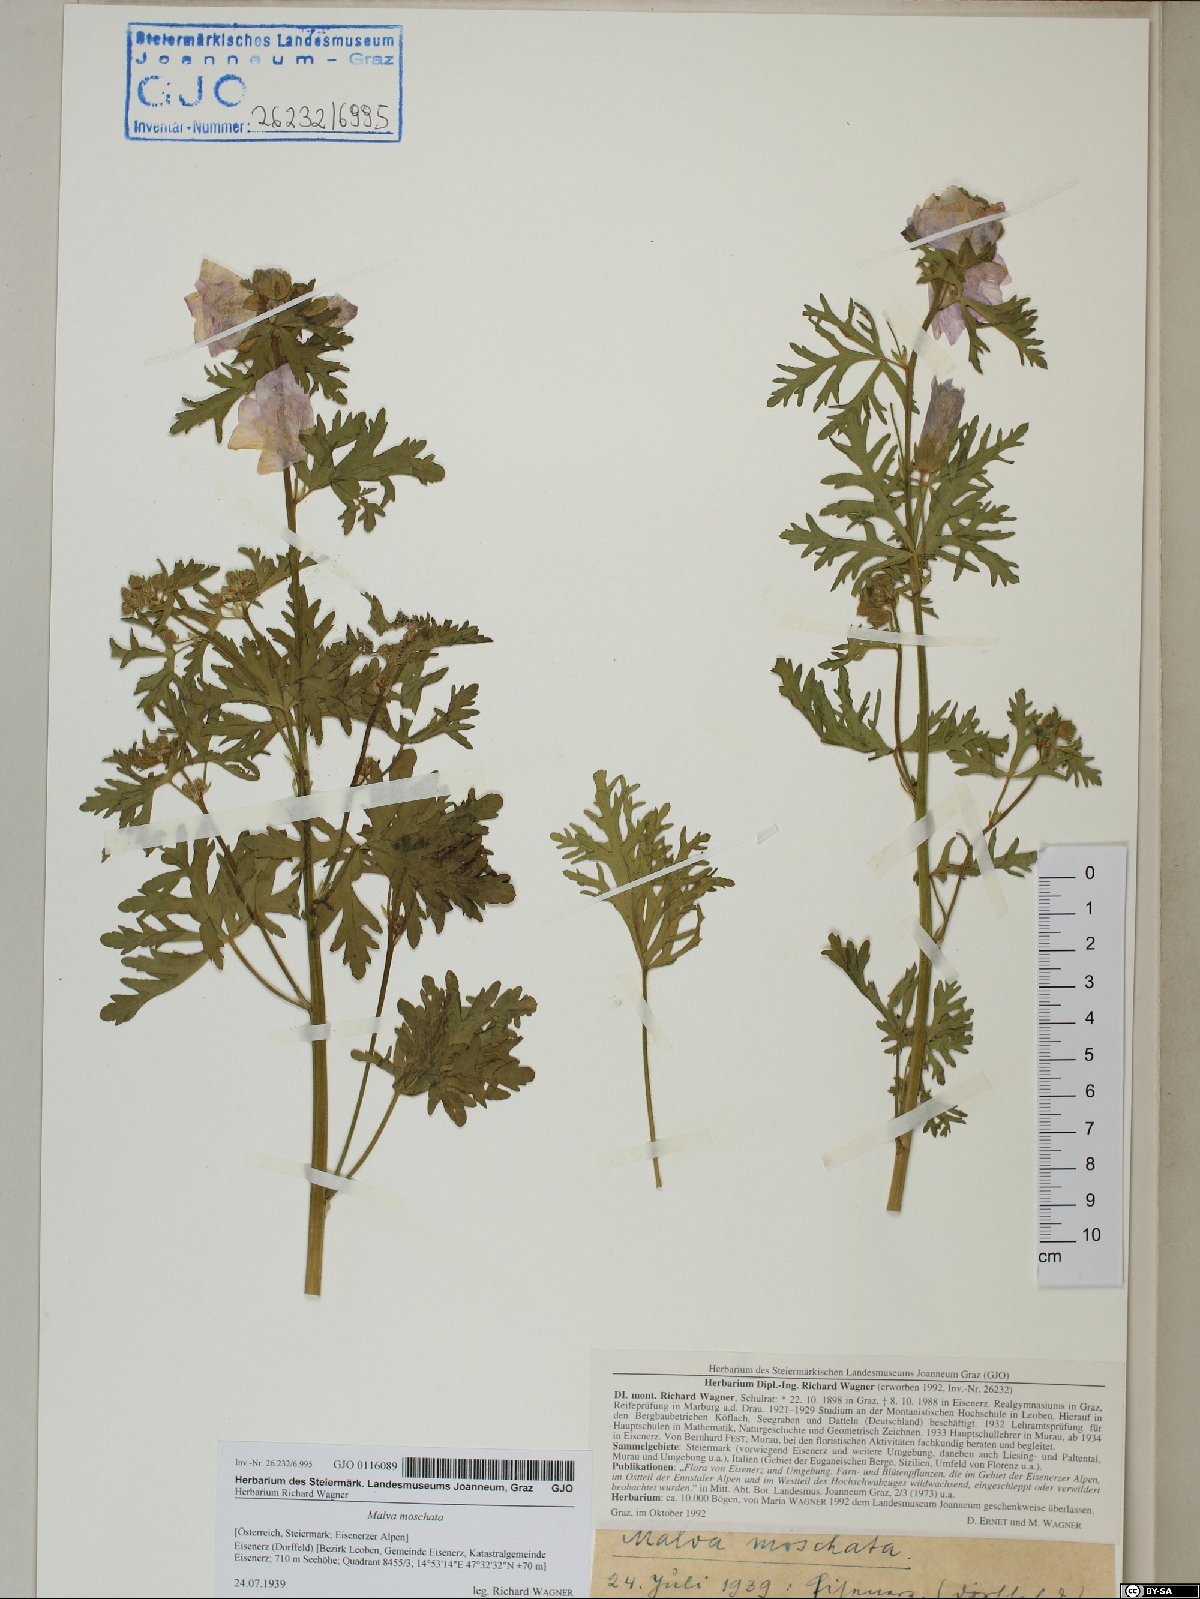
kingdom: Plantae
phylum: Tracheophyta
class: Magnoliopsida
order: Malvales
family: Malvaceae
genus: Malva
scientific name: Malva moschata
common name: Musk mallow
